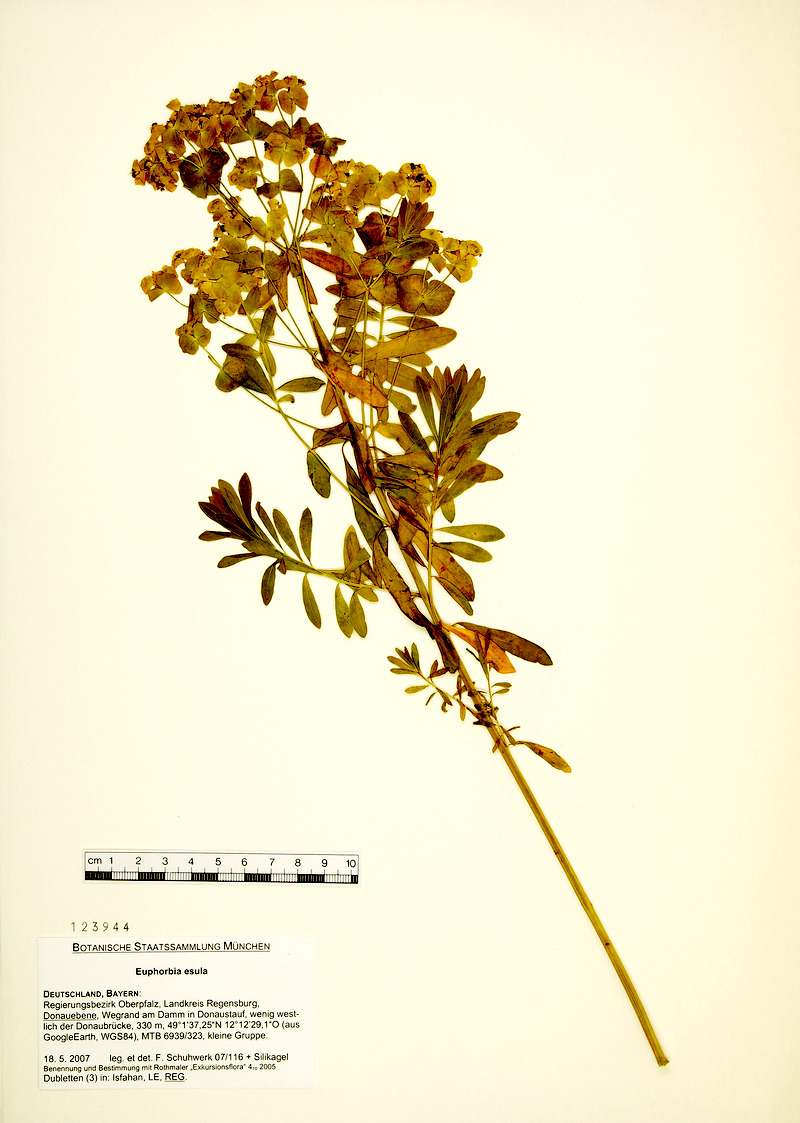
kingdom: Plantae
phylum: Tracheophyta
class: Magnoliopsida
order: Malpighiales
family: Euphorbiaceae
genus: Euphorbia
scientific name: Euphorbia esula
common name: Leafy spurge
